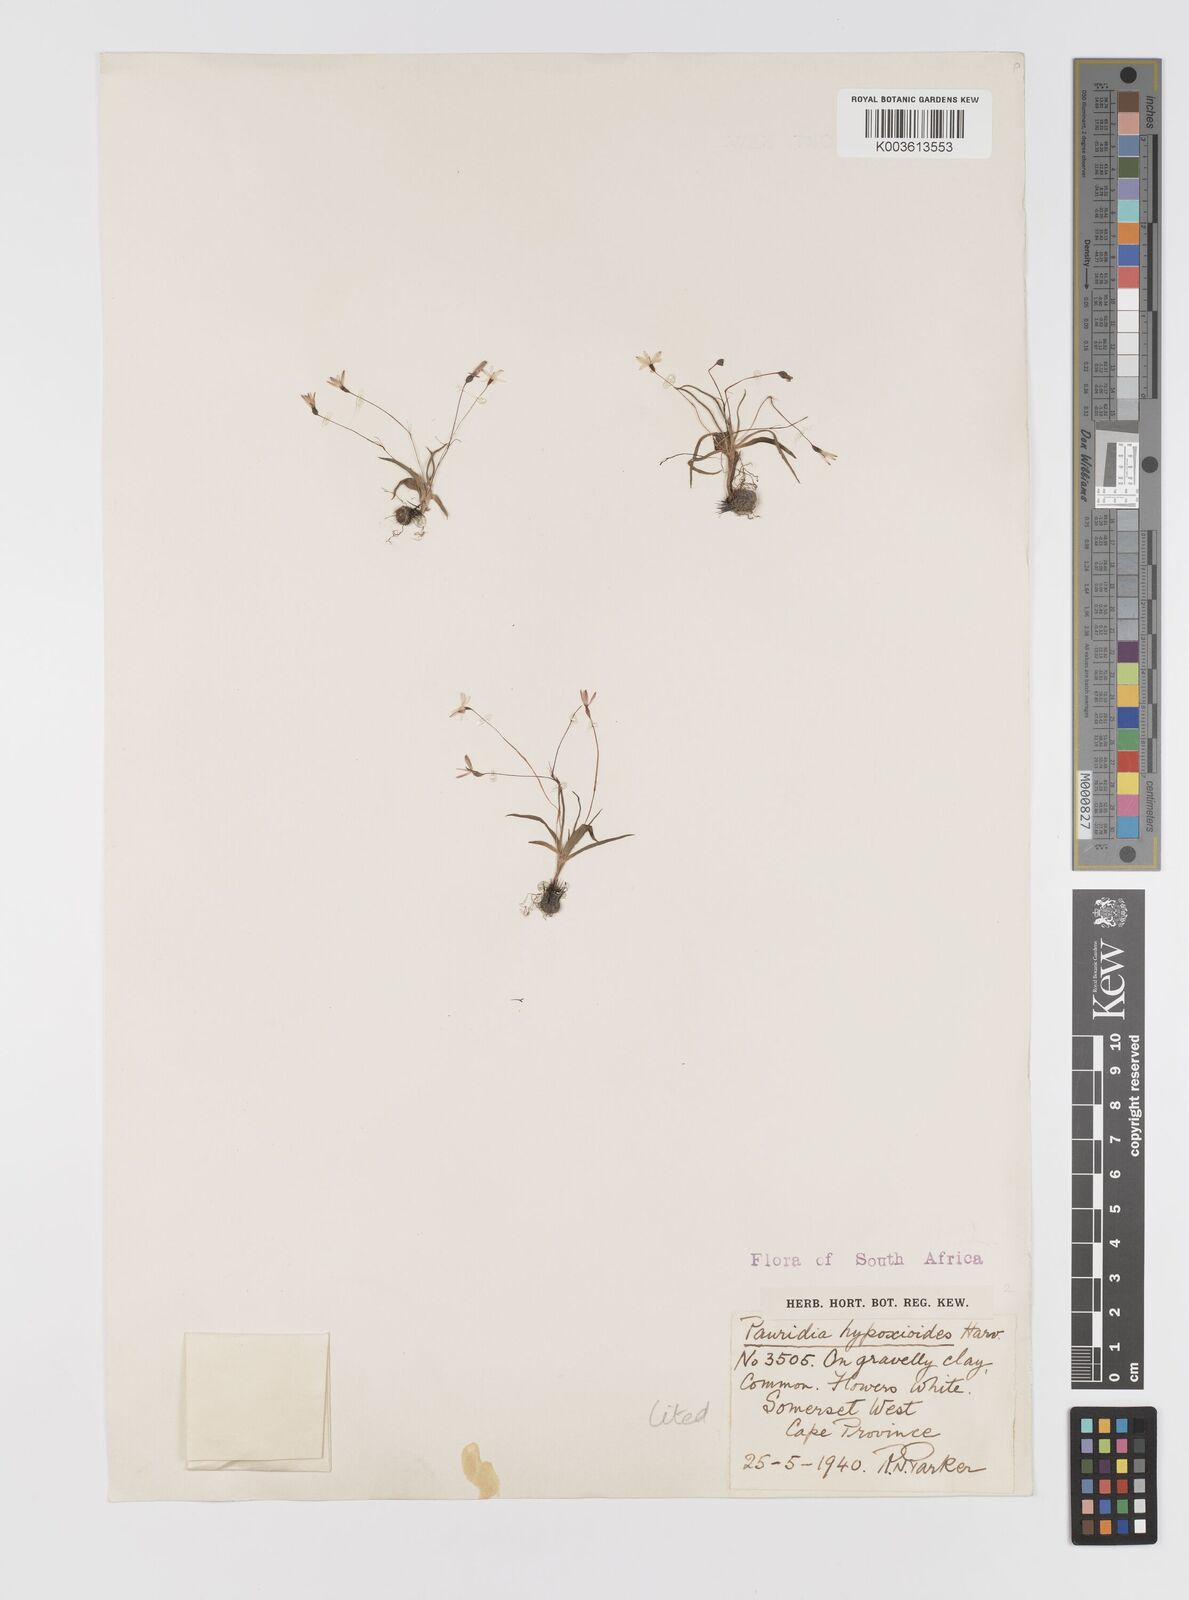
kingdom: Plantae
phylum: Tracheophyta
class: Liliopsida
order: Asparagales
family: Hypoxidaceae
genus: Pauridia
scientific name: Pauridia minuta
